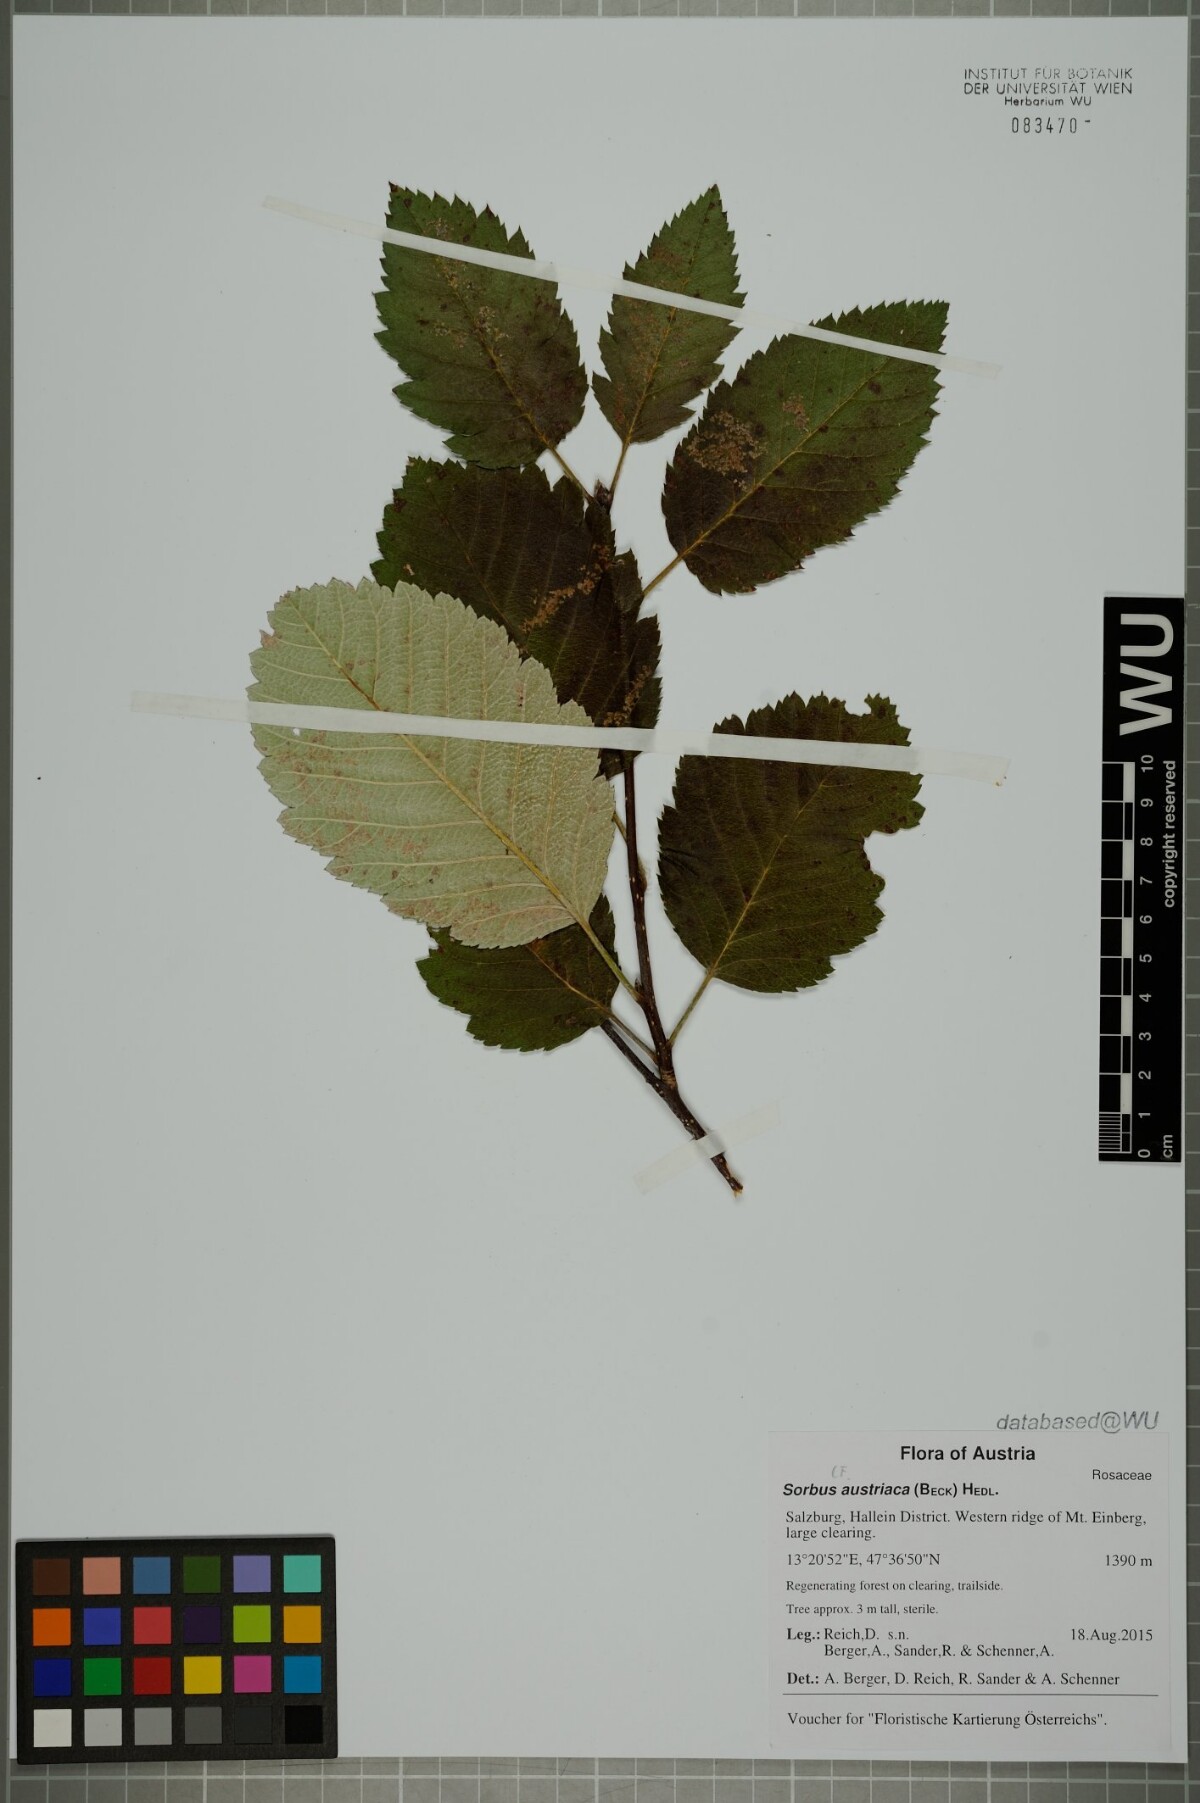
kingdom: Plantae
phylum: Tracheophyta
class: Magnoliopsida
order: Rosales
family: Rosaceae
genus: Hedlundia
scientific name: Hedlundia austriaca
